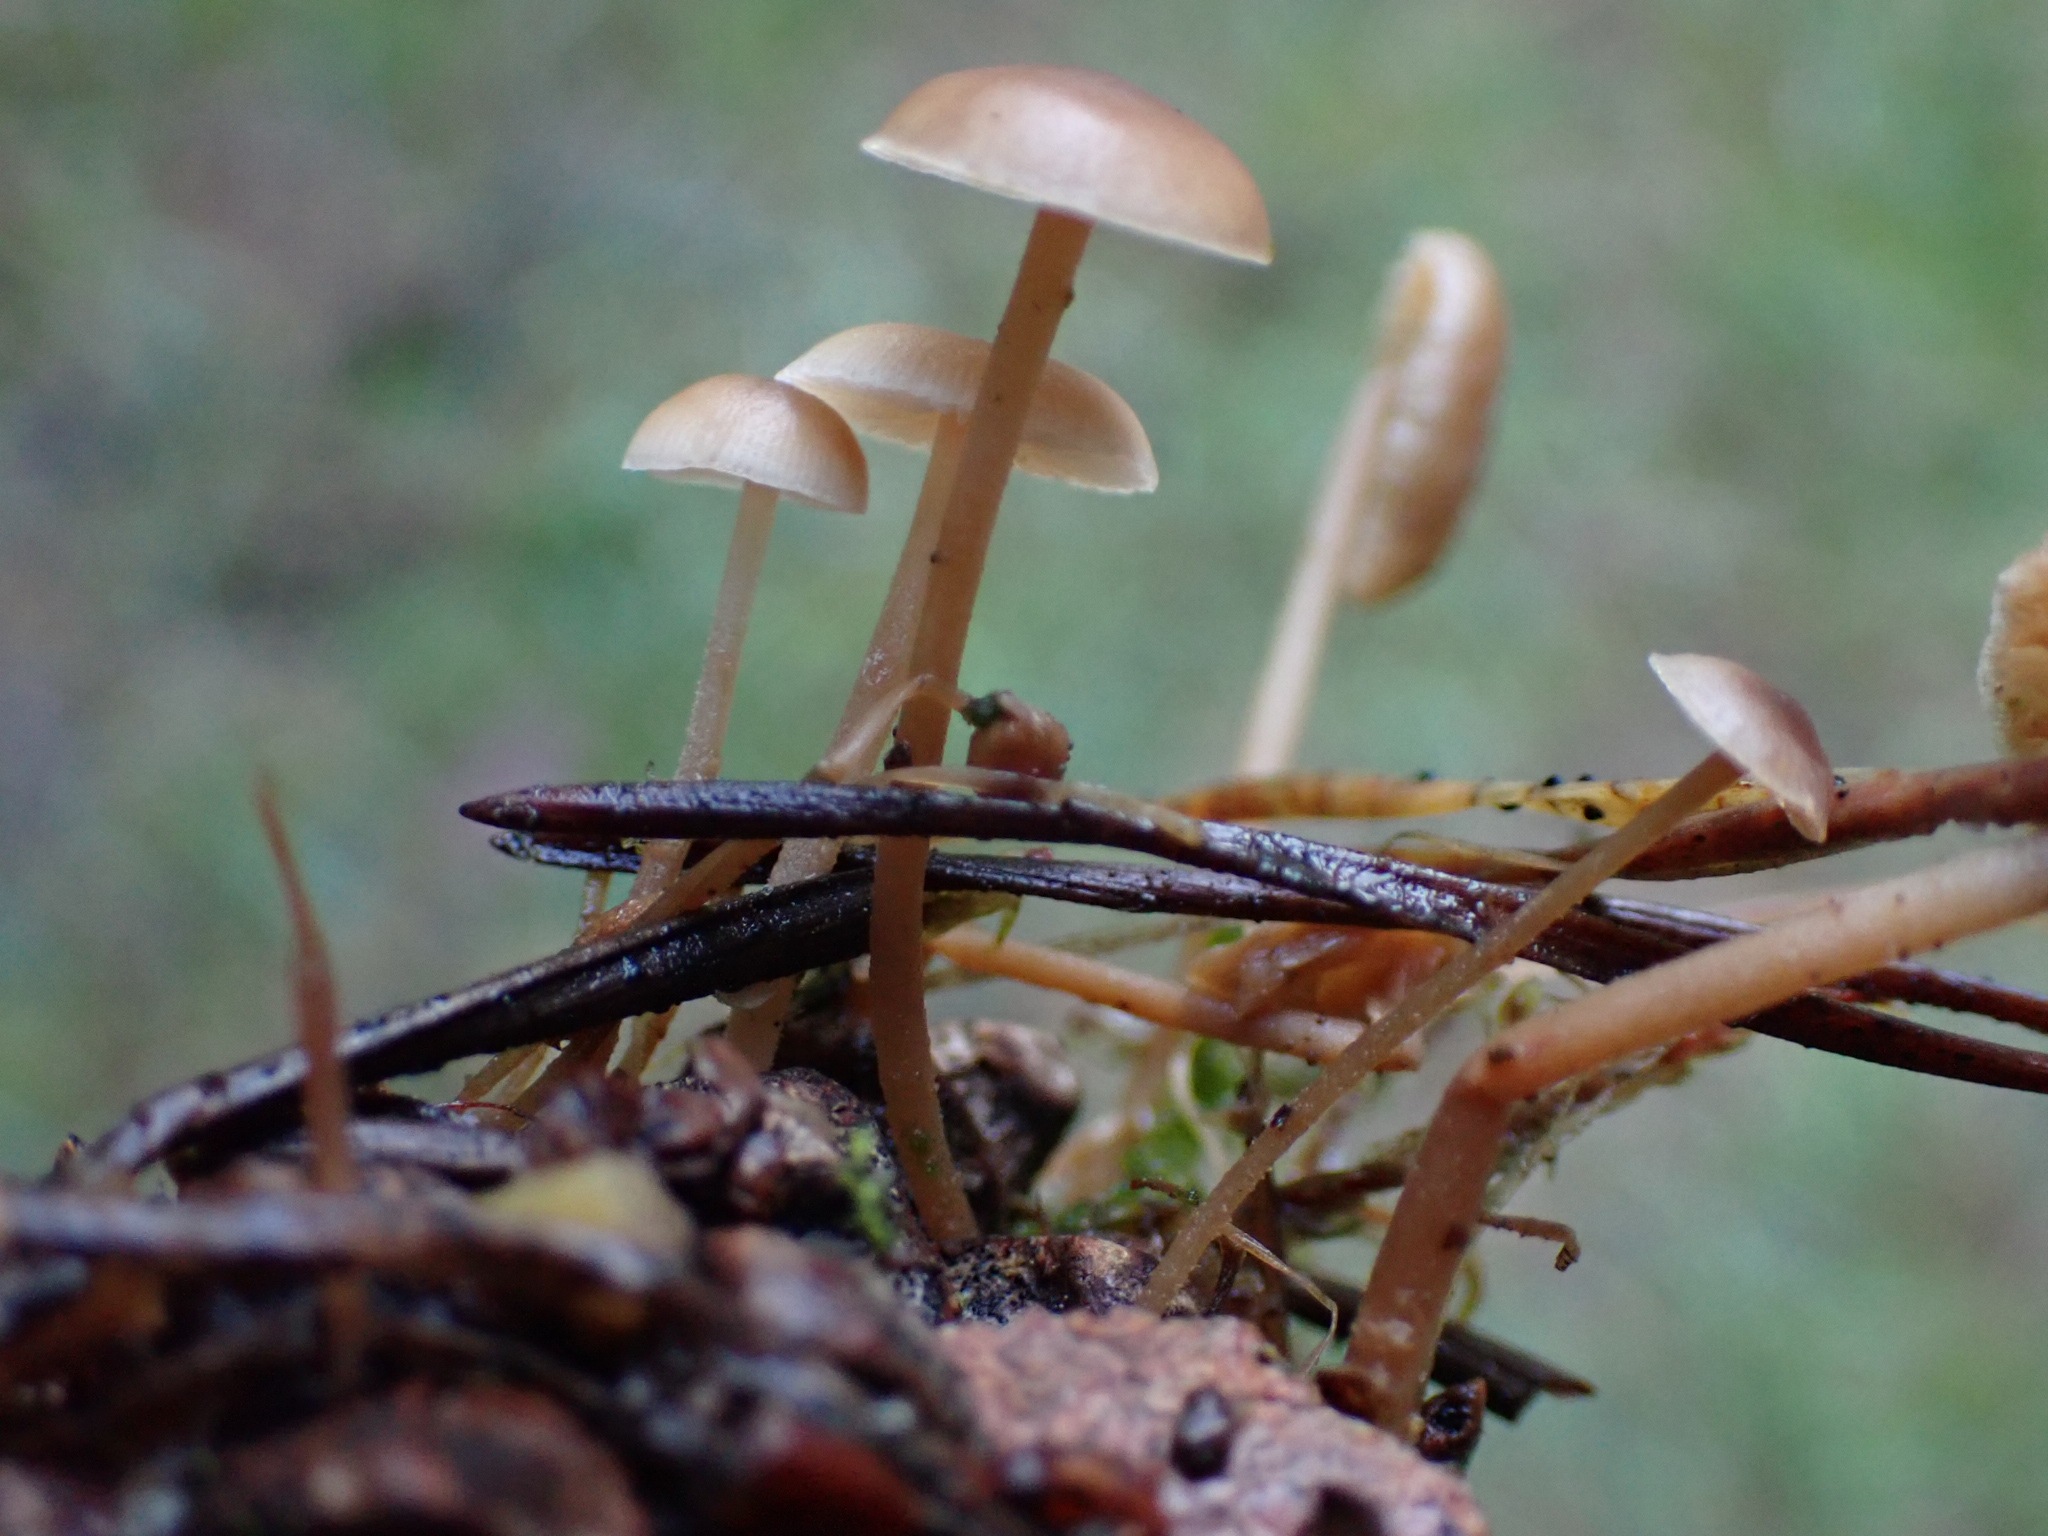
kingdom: Fungi
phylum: Basidiomycota
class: Agaricomycetes
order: Agaricales
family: Marasmiaceae
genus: Baeospora
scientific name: Baeospora myosura
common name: koglebruskhat
